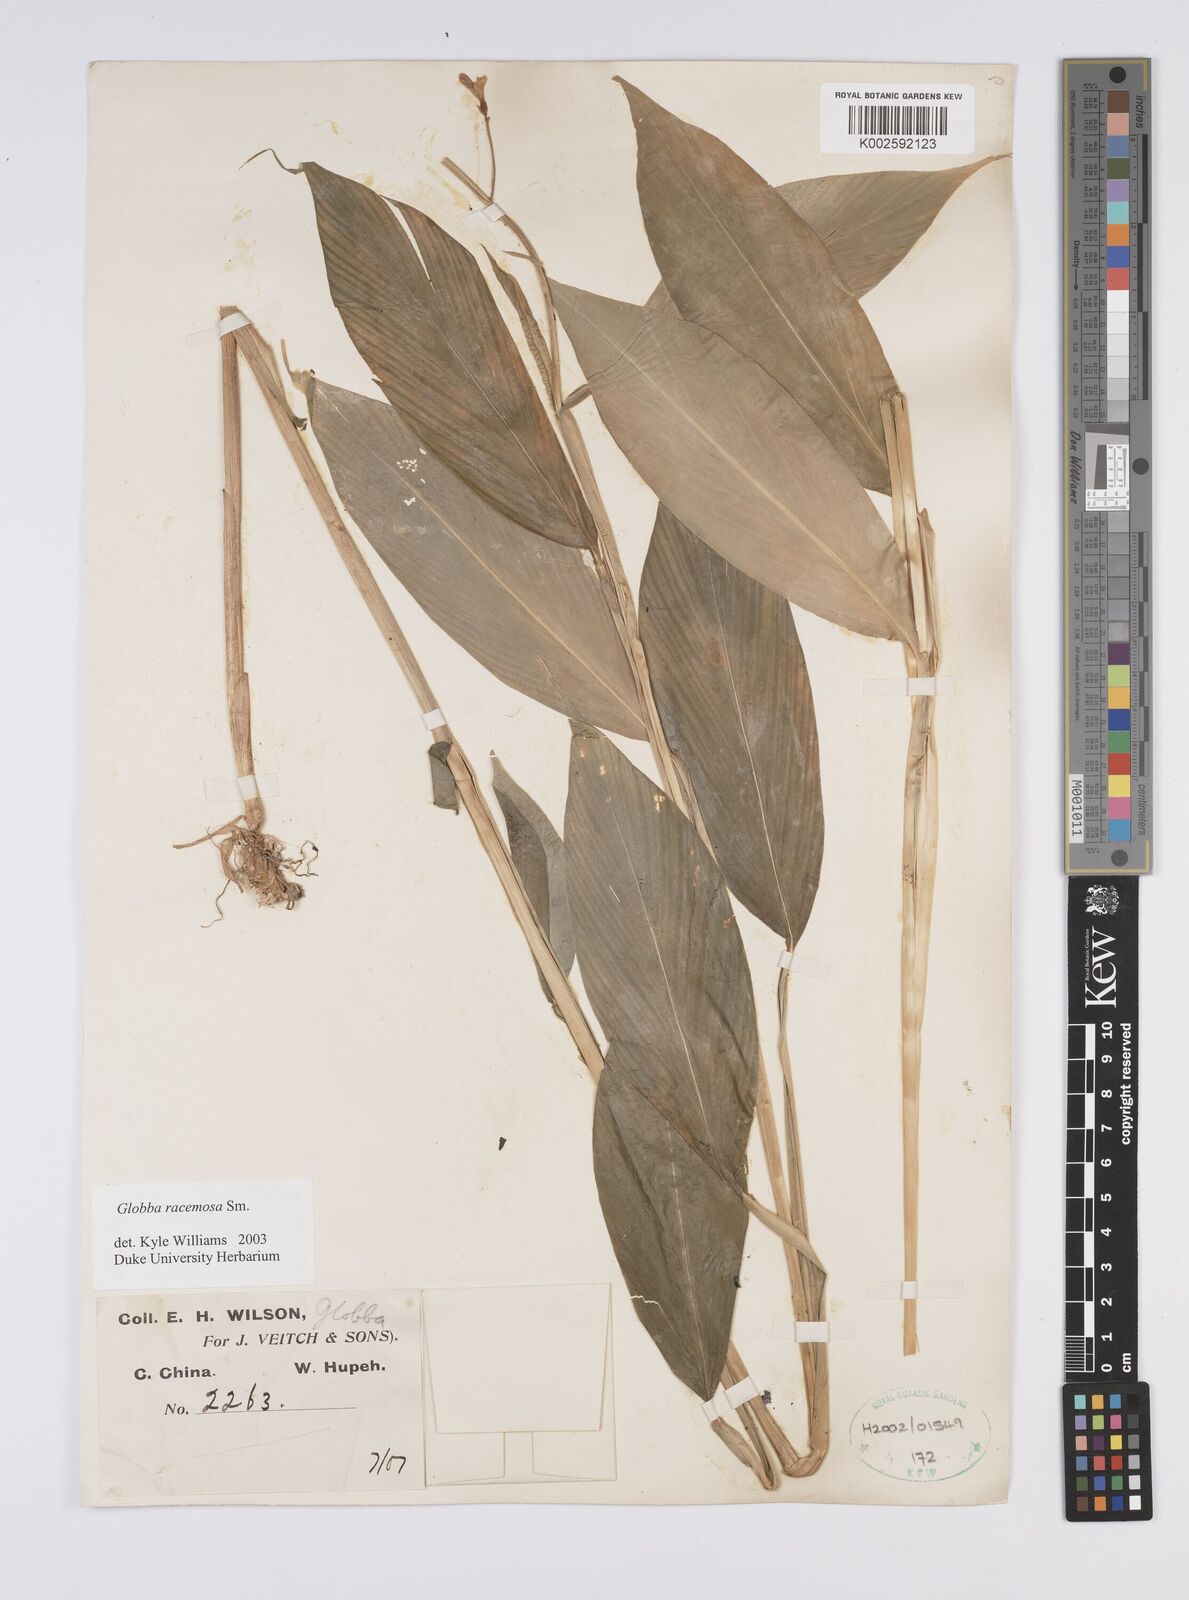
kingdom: Plantae
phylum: Tracheophyta
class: Liliopsida
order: Zingiberales
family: Zingiberaceae
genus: Globba
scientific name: Globba racemosa
